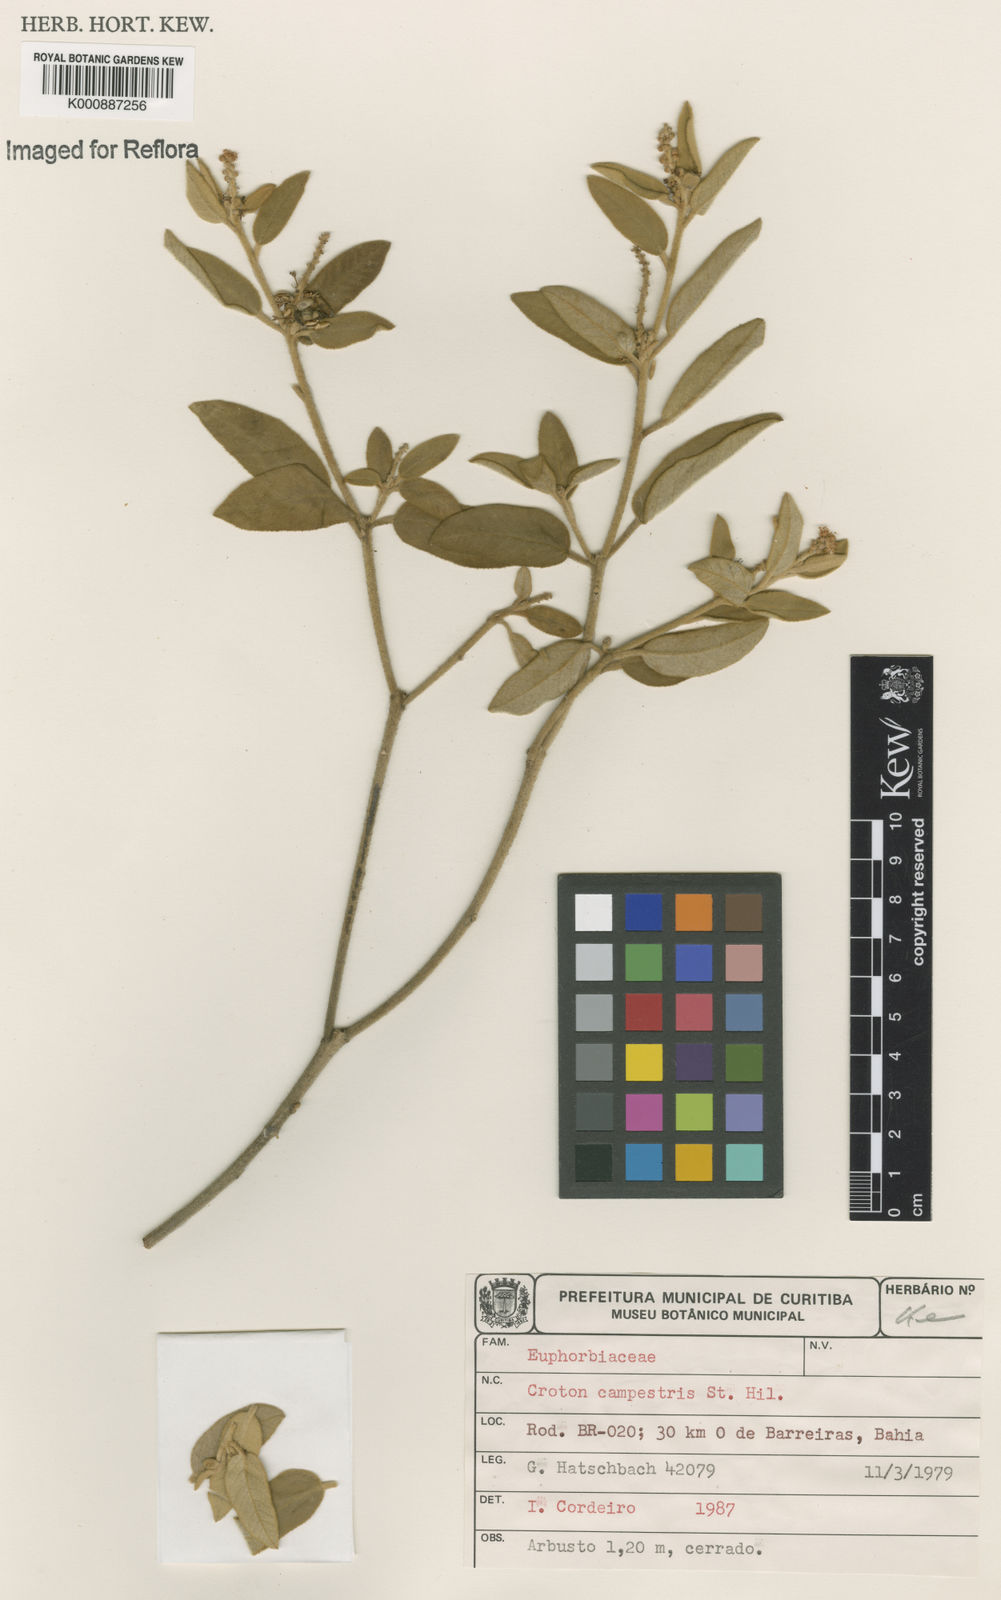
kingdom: Plantae
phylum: Tracheophyta
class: Magnoliopsida
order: Malpighiales
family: Euphorbiaceae
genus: Croton
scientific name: Croton campestris
